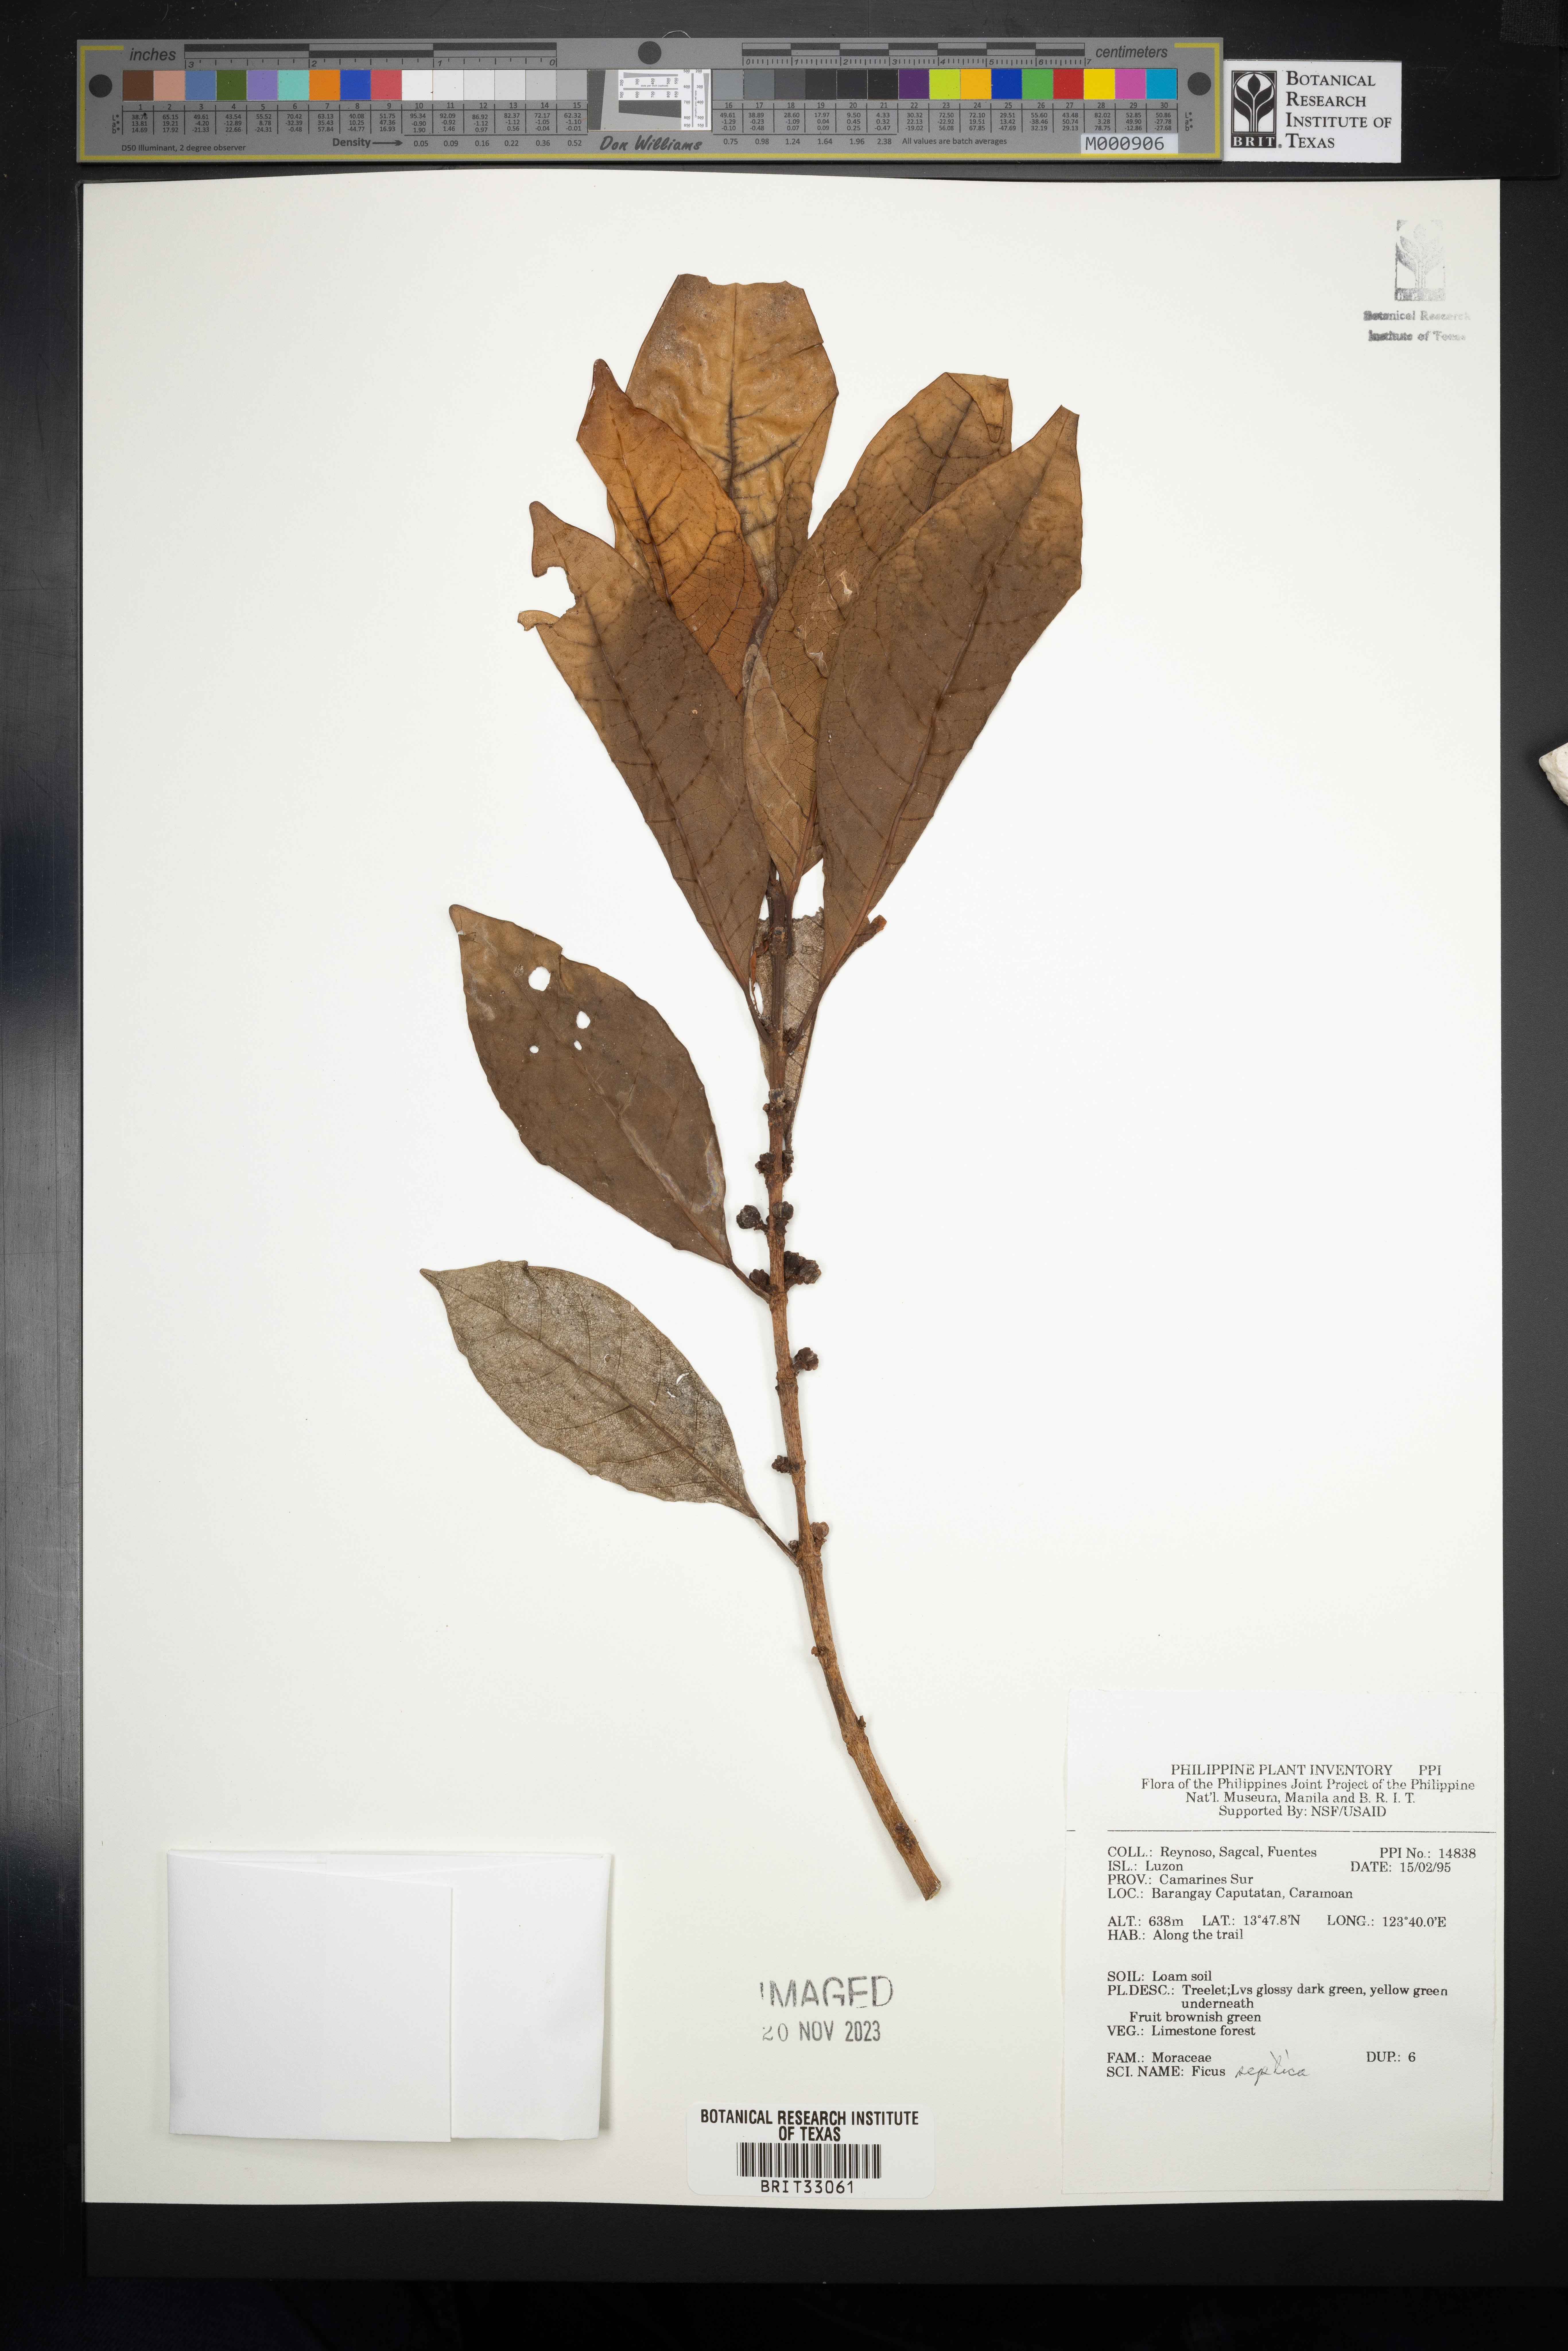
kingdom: Plantae
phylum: Tracheophyta
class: Magnoliopsida
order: Rosales
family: Moraceae
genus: Ficus
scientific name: Ficus septica
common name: Septic fig
